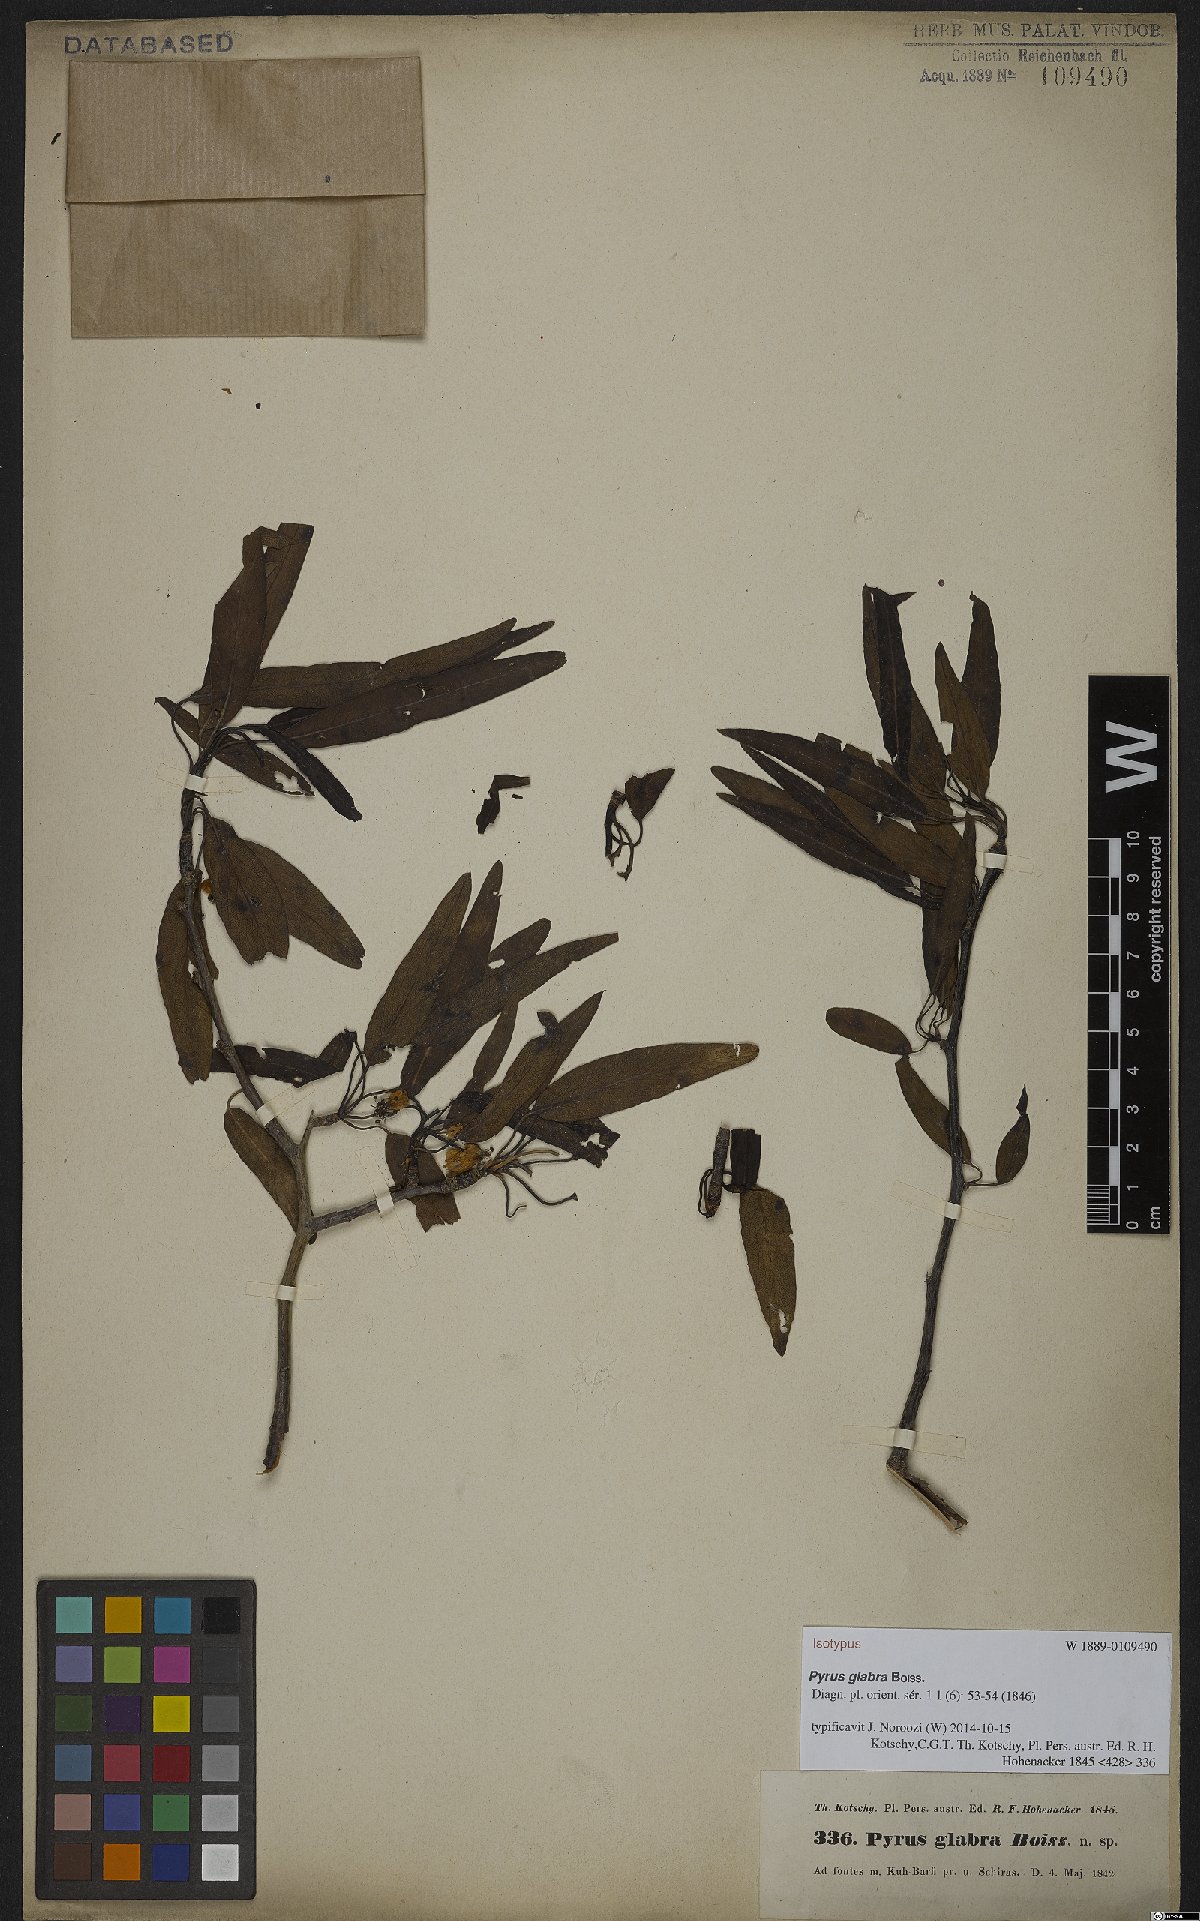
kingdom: Plantae
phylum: Tracheophyta
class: Magnoliopsida
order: Rosales
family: Rosaceae
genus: Pyrus
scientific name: Pyrus glabra
